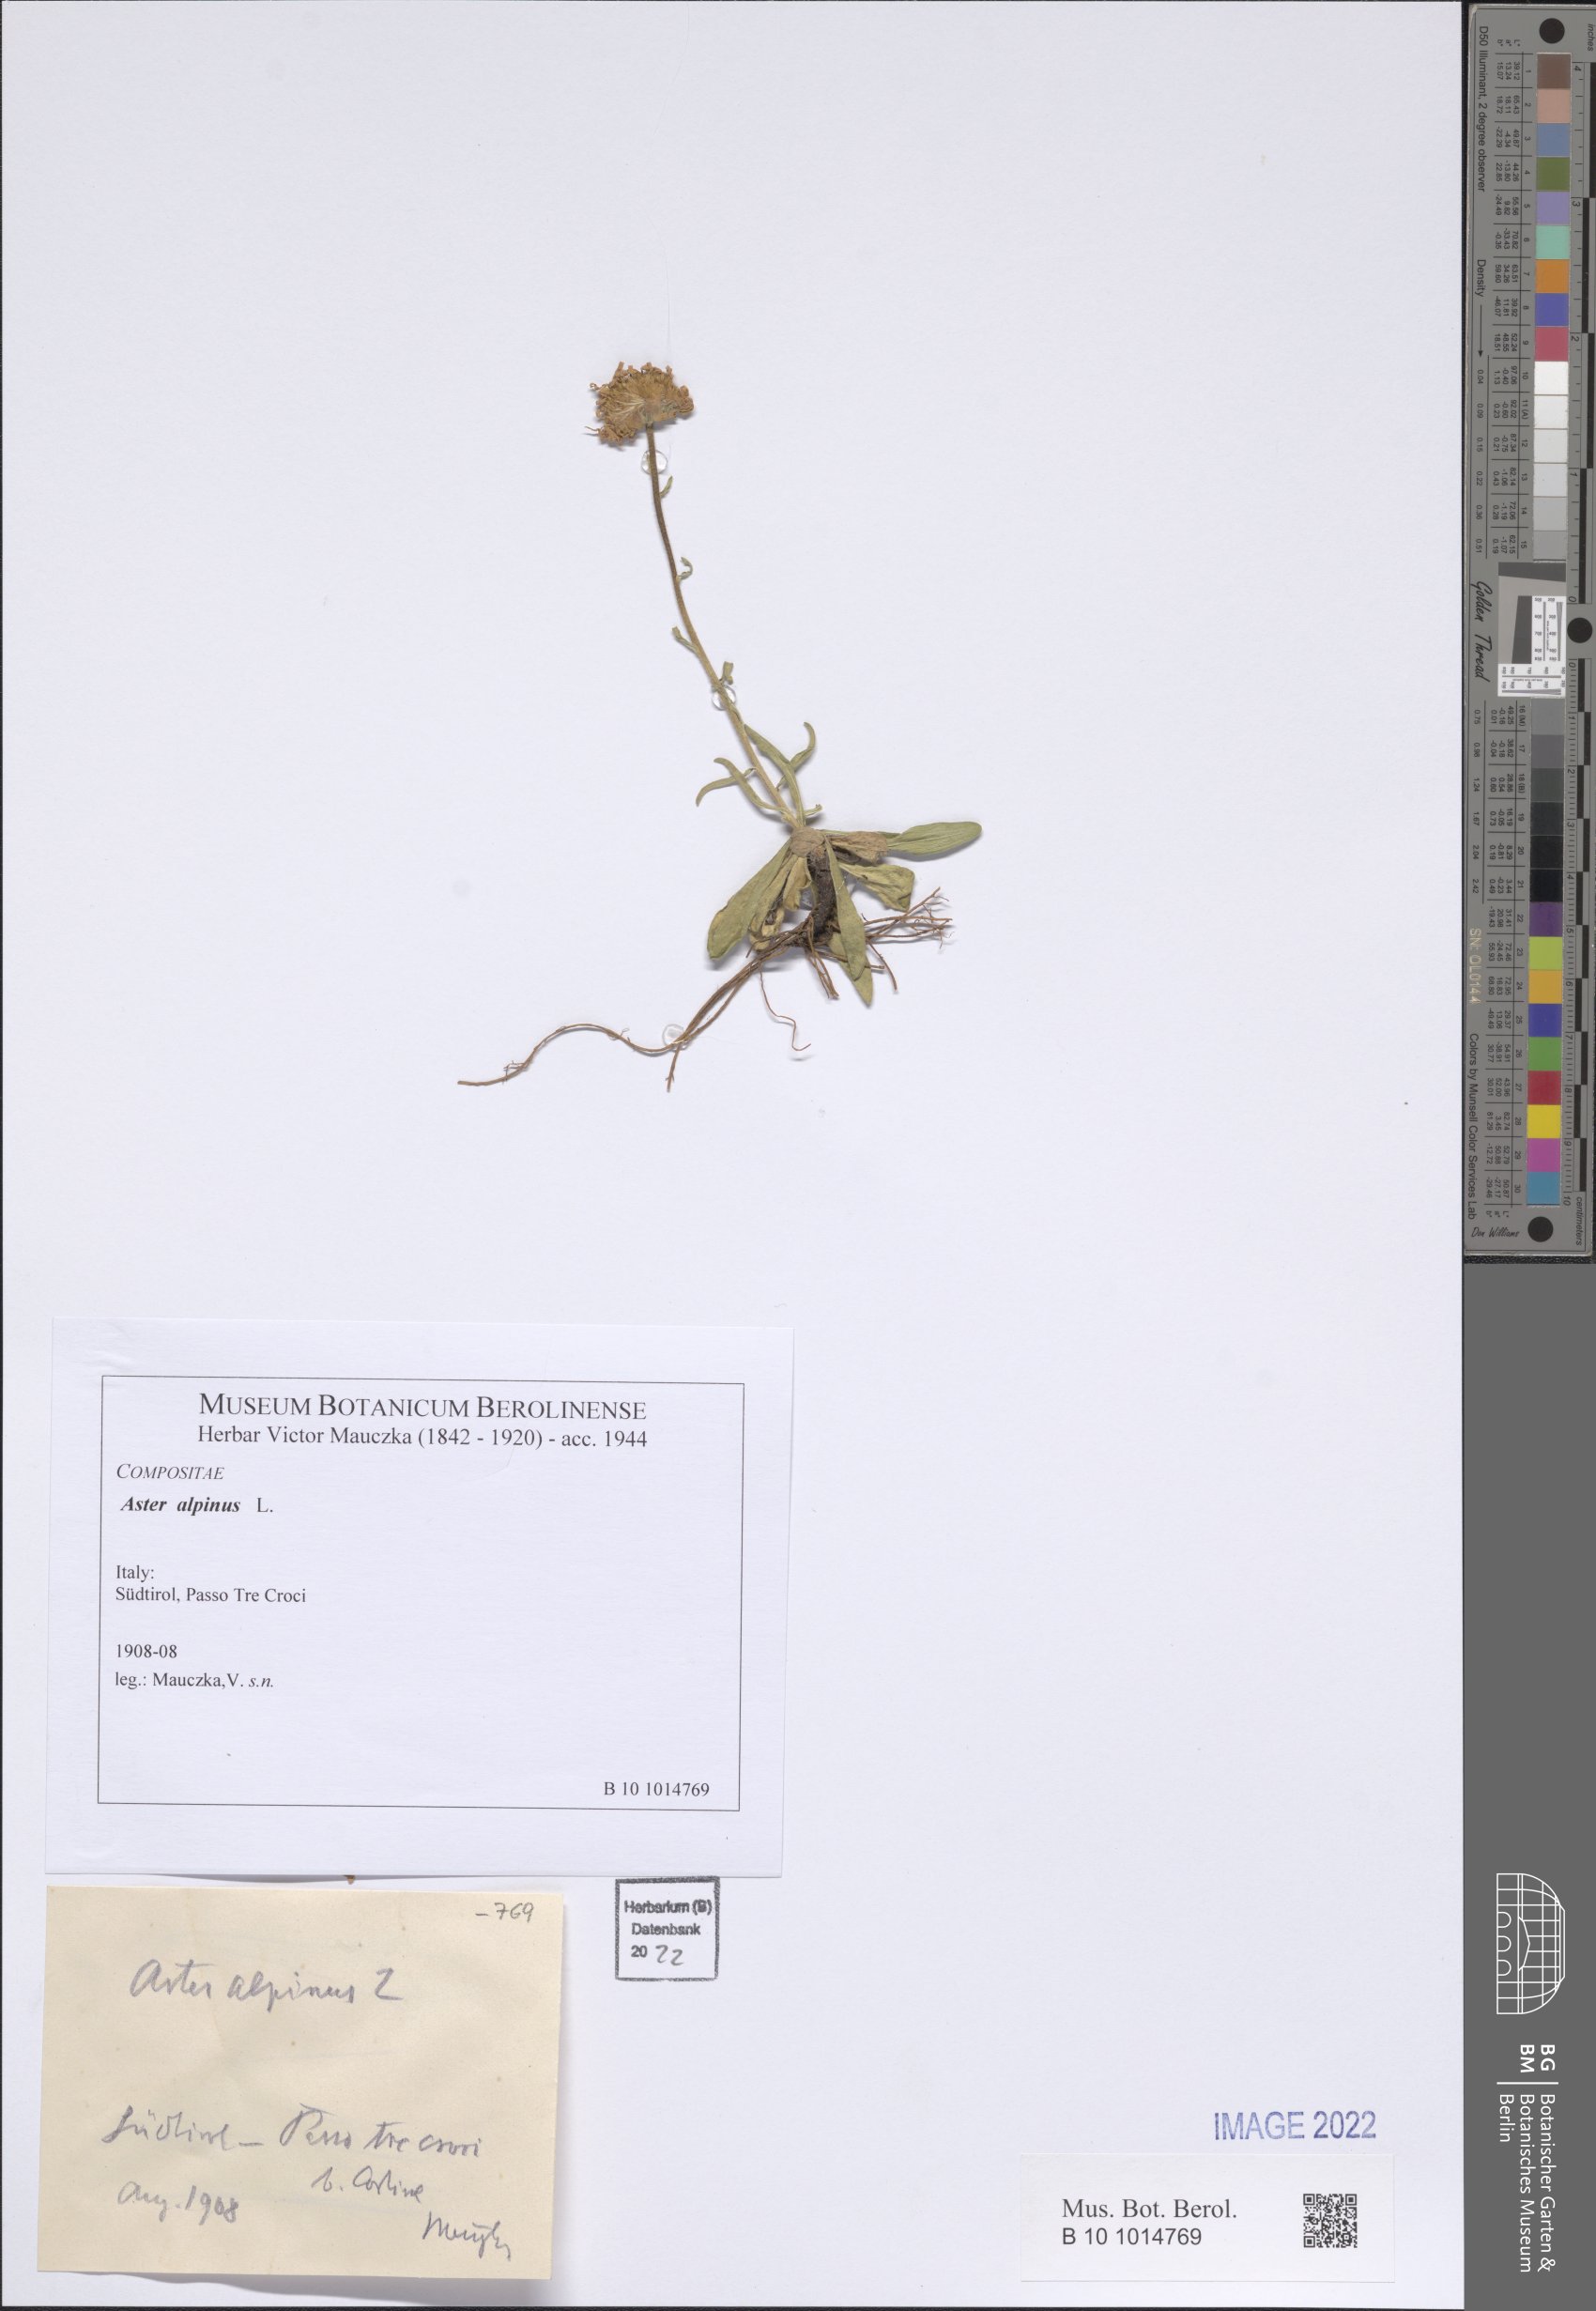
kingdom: Plantae
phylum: Tracheophyta
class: Magnoliopsida
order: Asterales
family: Asteraceae
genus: Aster
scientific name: Aster alpinus
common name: Alpine aster
